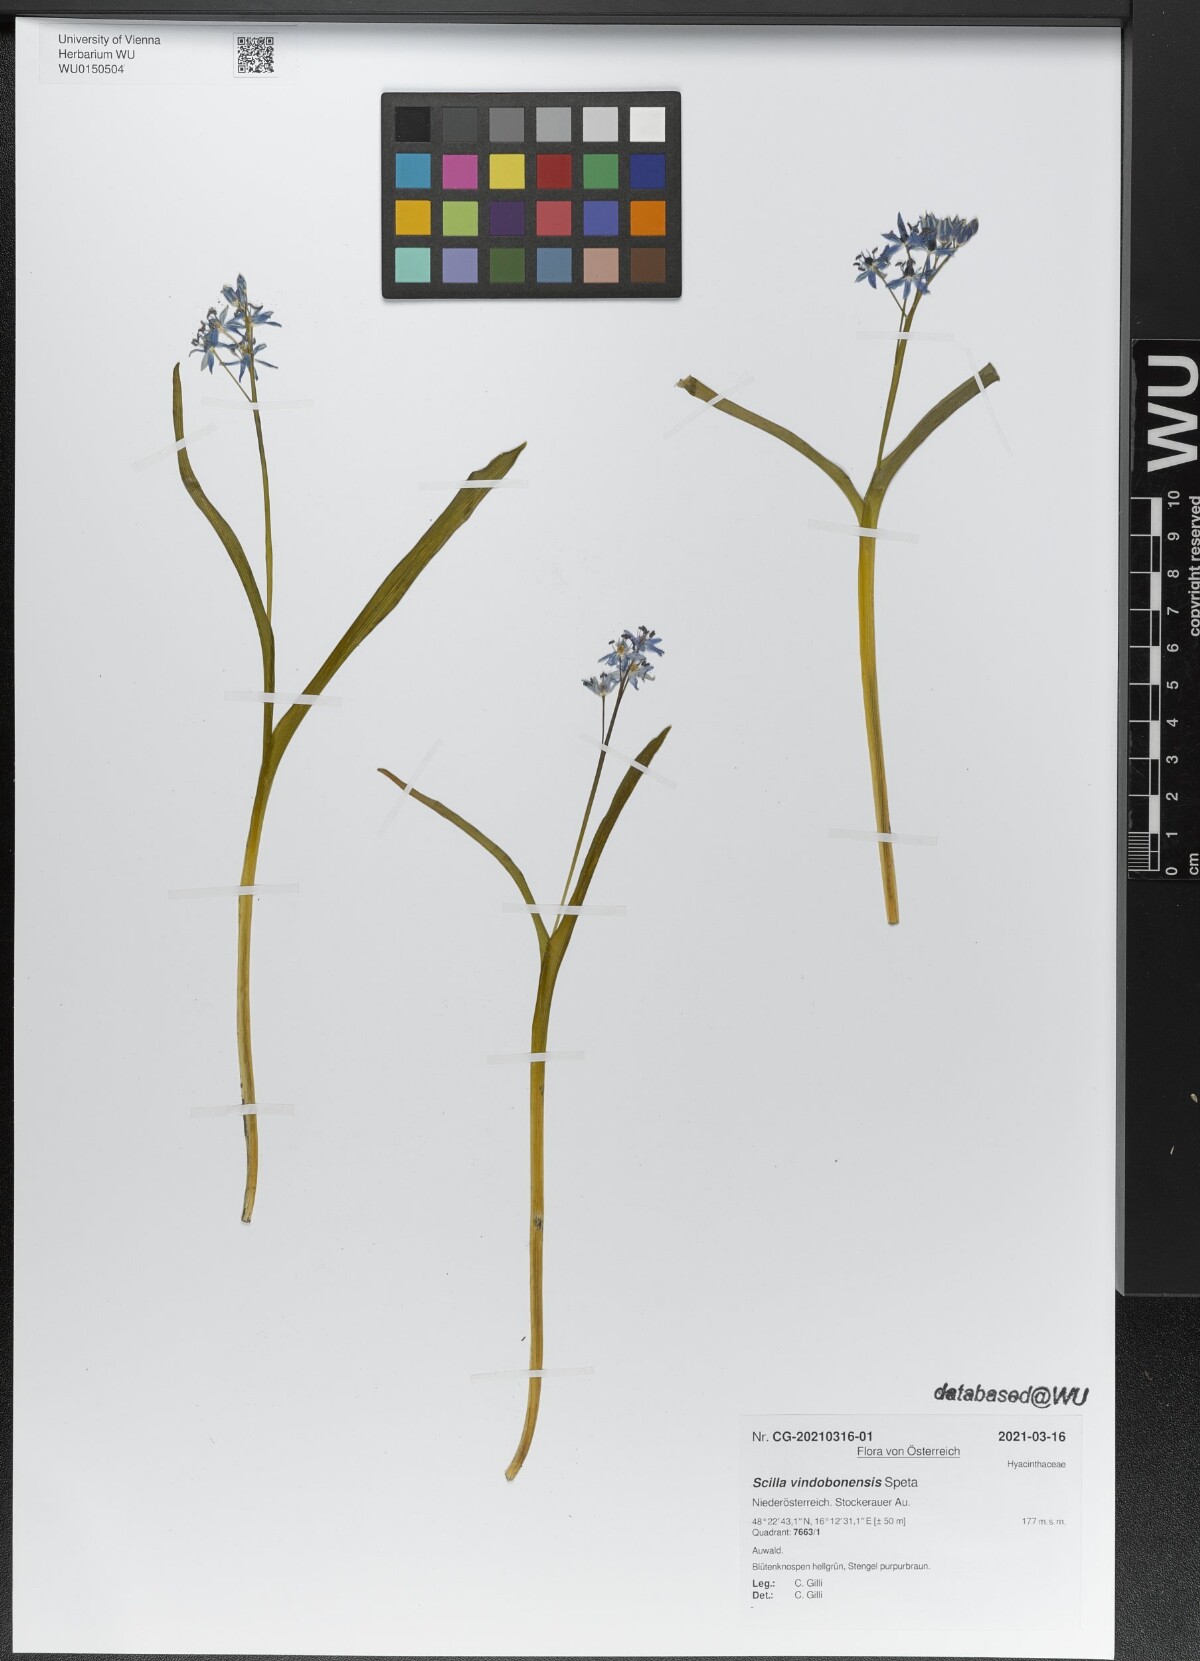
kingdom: Plantae
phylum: Tracheophyta
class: Liliopsida
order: Asparagales
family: Asparagaceae
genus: Scilla
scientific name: Scilla vindobonensis
